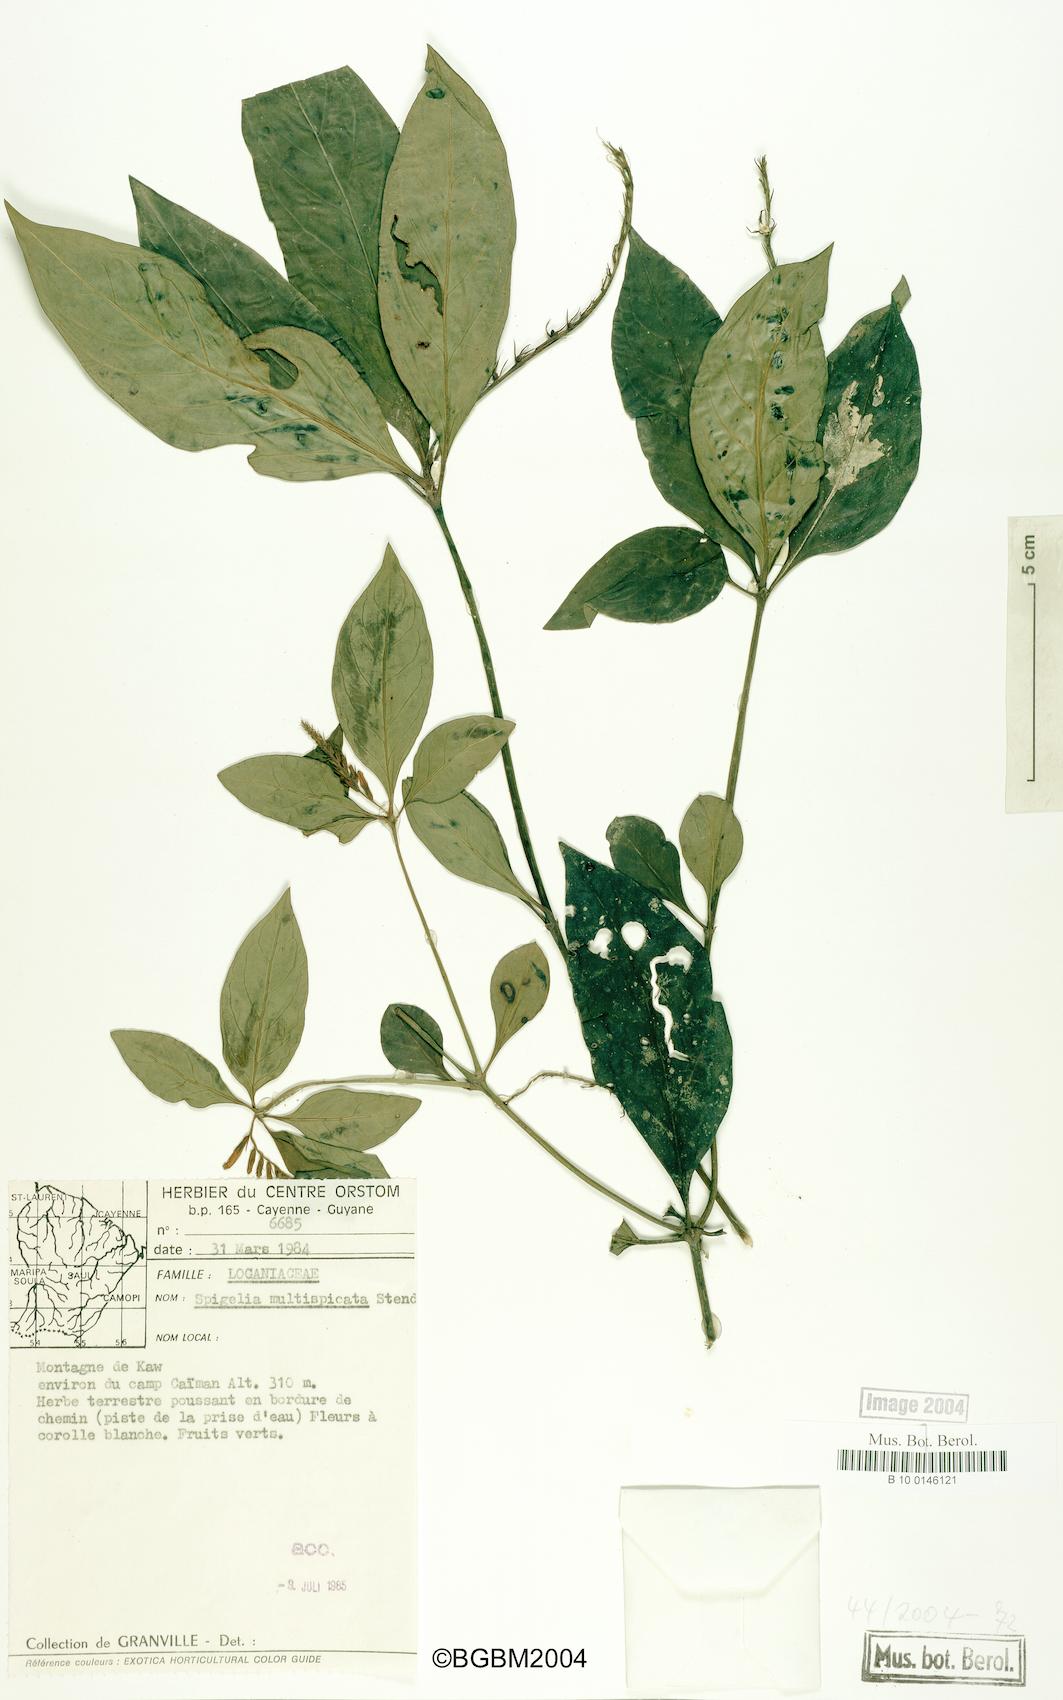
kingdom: Plantae
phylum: Tracheophyta
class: Magnoliopsida
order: Gentianales
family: Loganiaceae
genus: Spigelia
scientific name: Spigelia hamellioides
